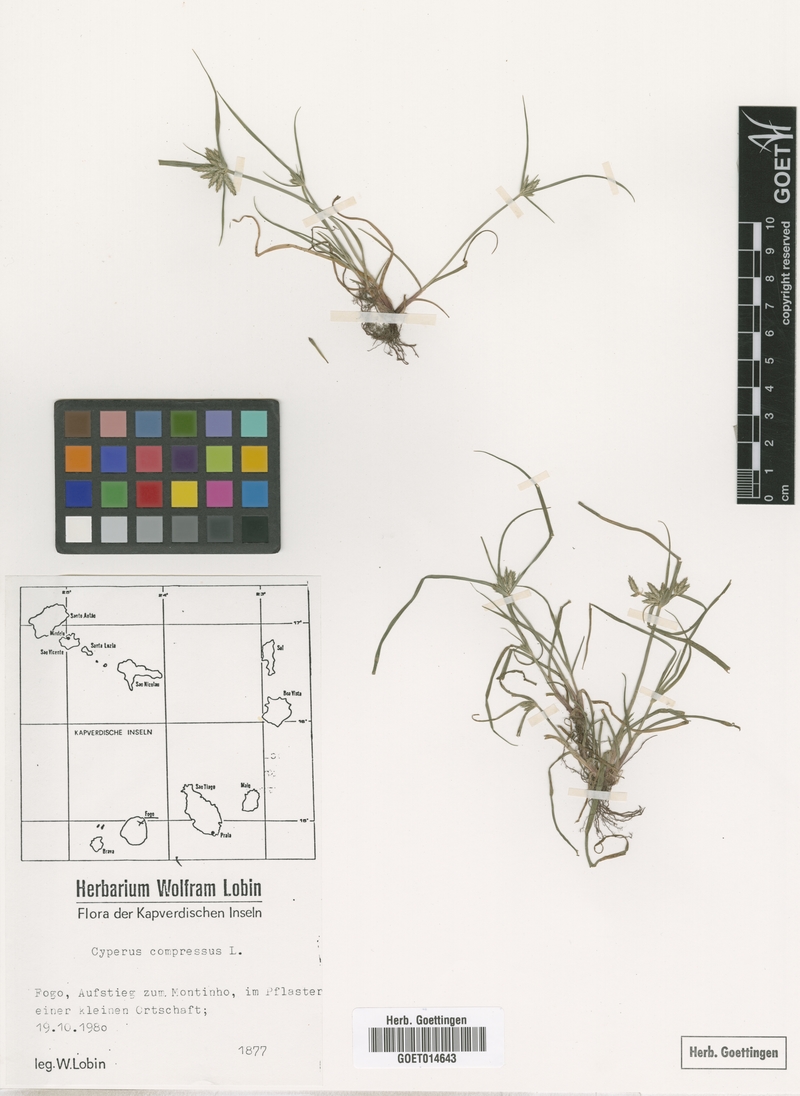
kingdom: Plantae
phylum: Tracheophyta
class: Liliopsida
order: Poales
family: Cyperaceae
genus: Cyperus
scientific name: Cyperus compressus
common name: Poorland flatsedge
